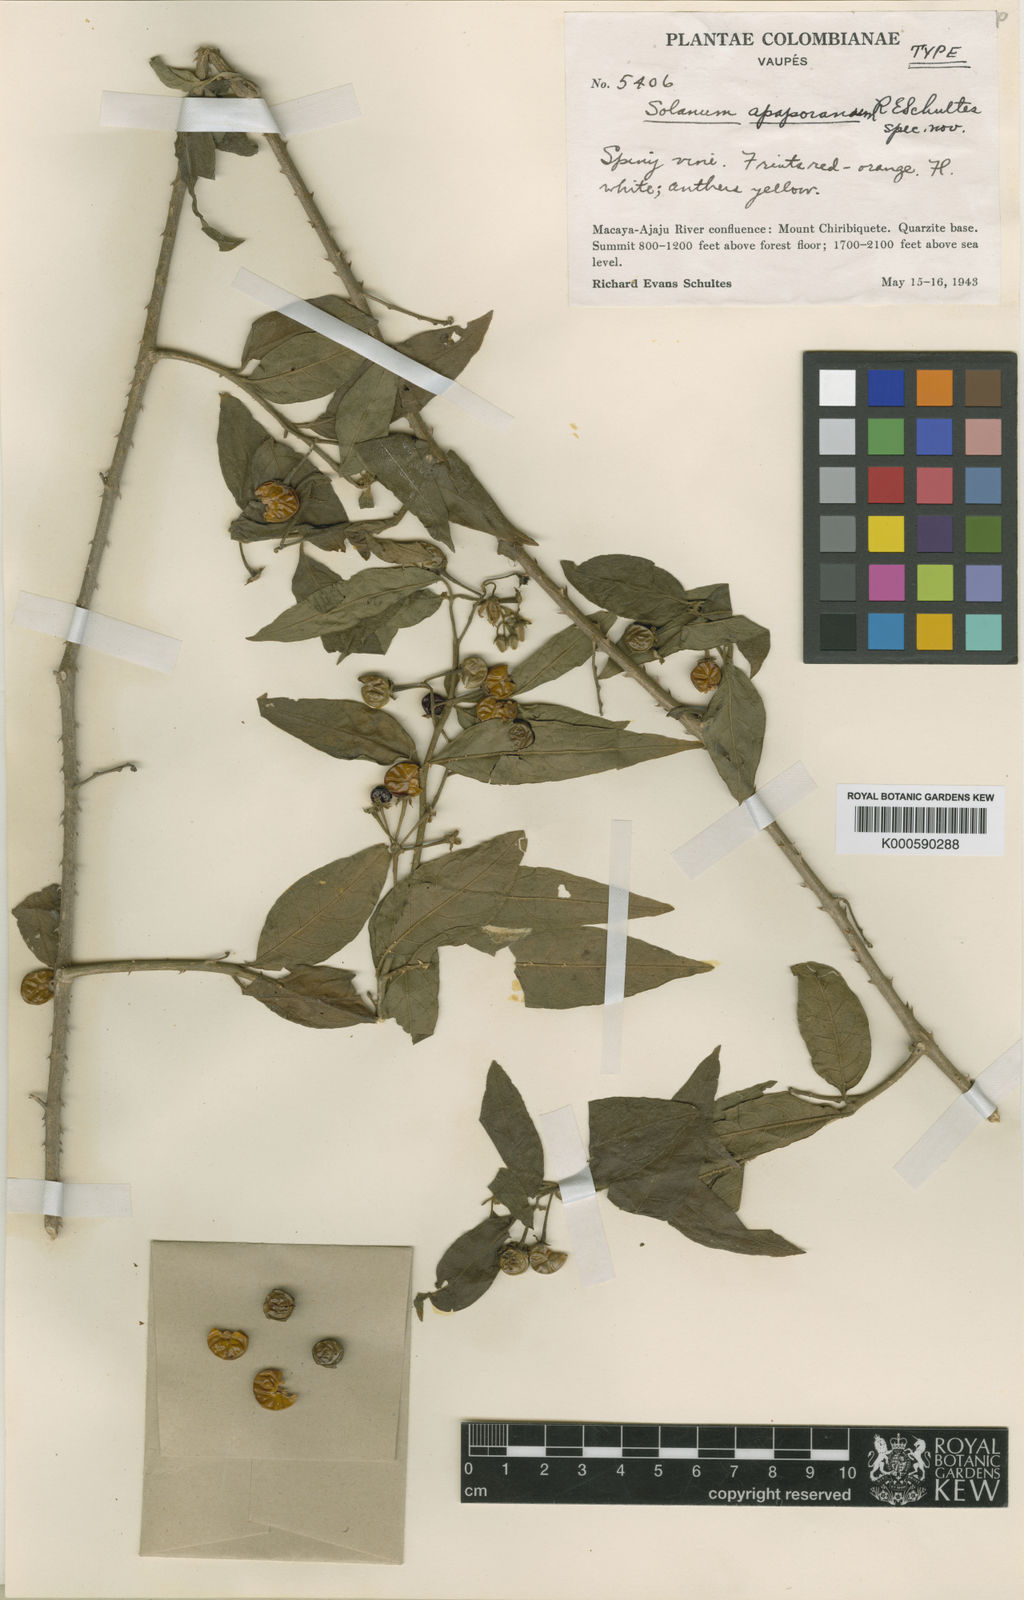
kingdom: Plantae
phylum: Tracheophyta
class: Magnoliopsida
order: Solanales
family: Solanaceae
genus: Solanum
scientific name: Solanum apaporanum
